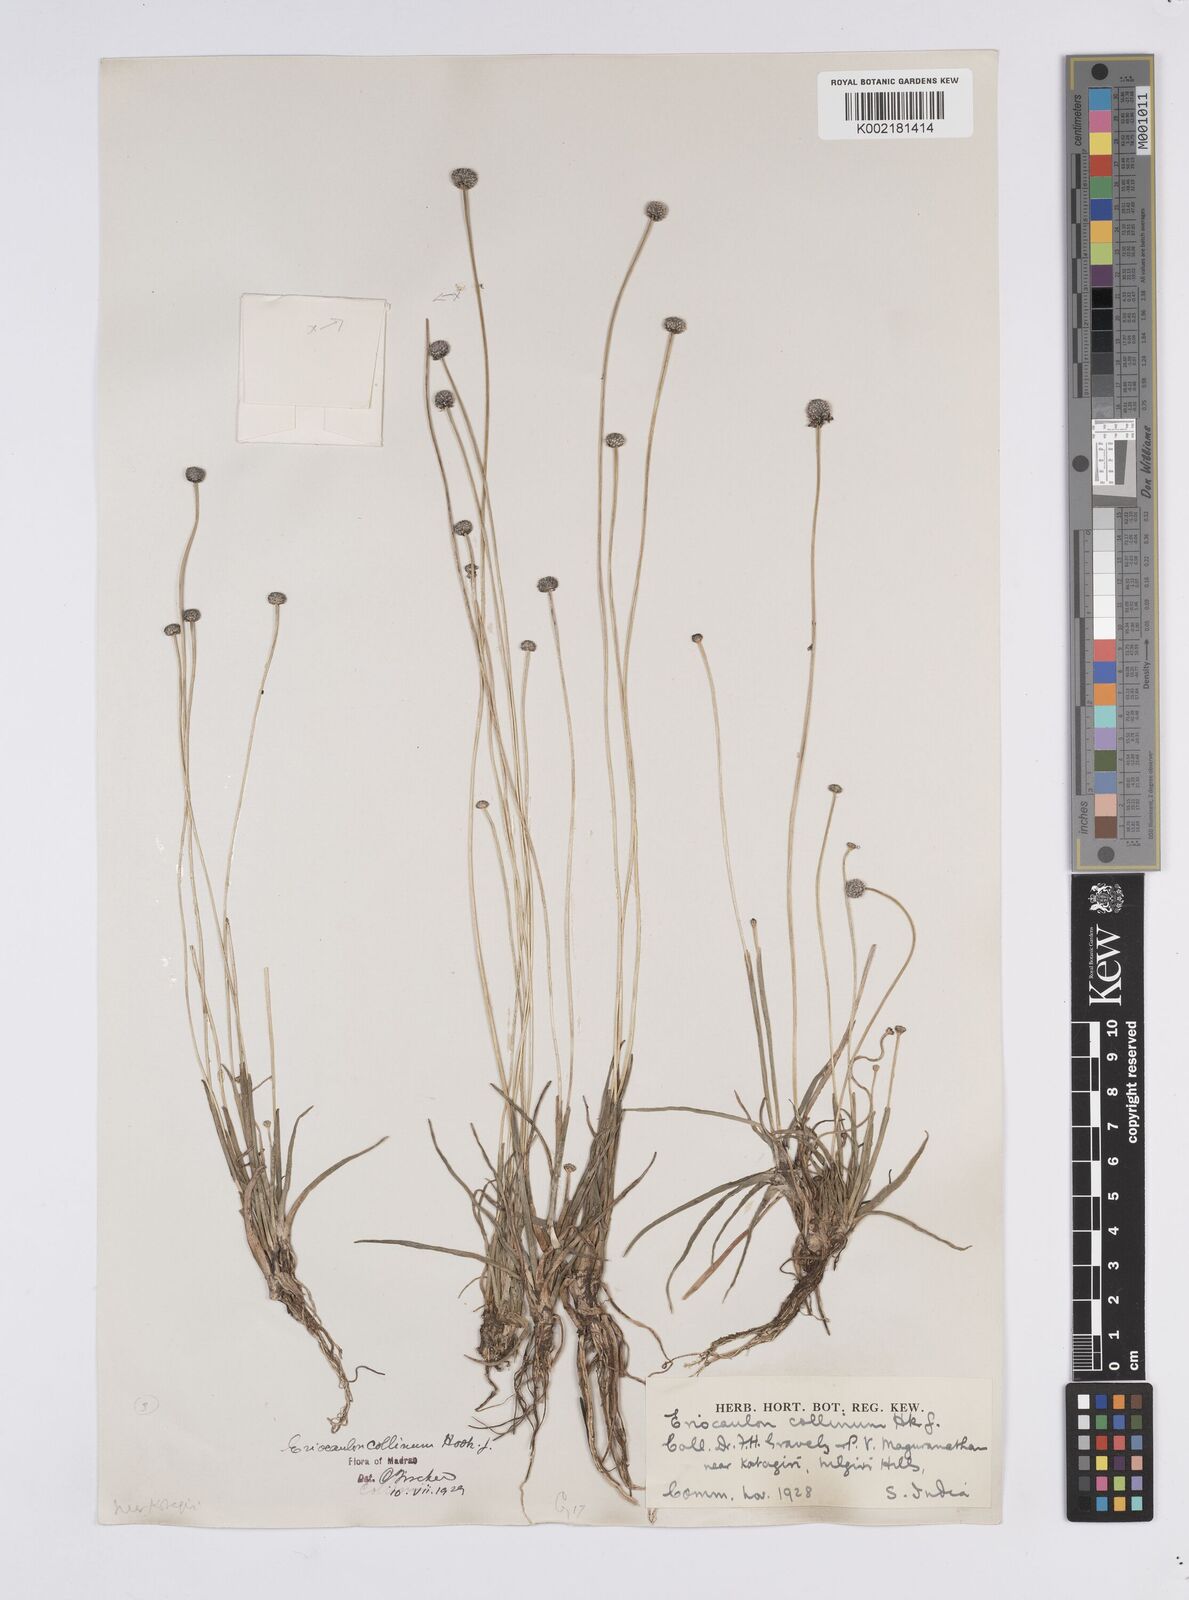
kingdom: Plantae
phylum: Tracheophyta
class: Liliopsida
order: Poales
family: Eriocaulaceae
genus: Eriocaulon
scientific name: Eriocaulon odoratum
